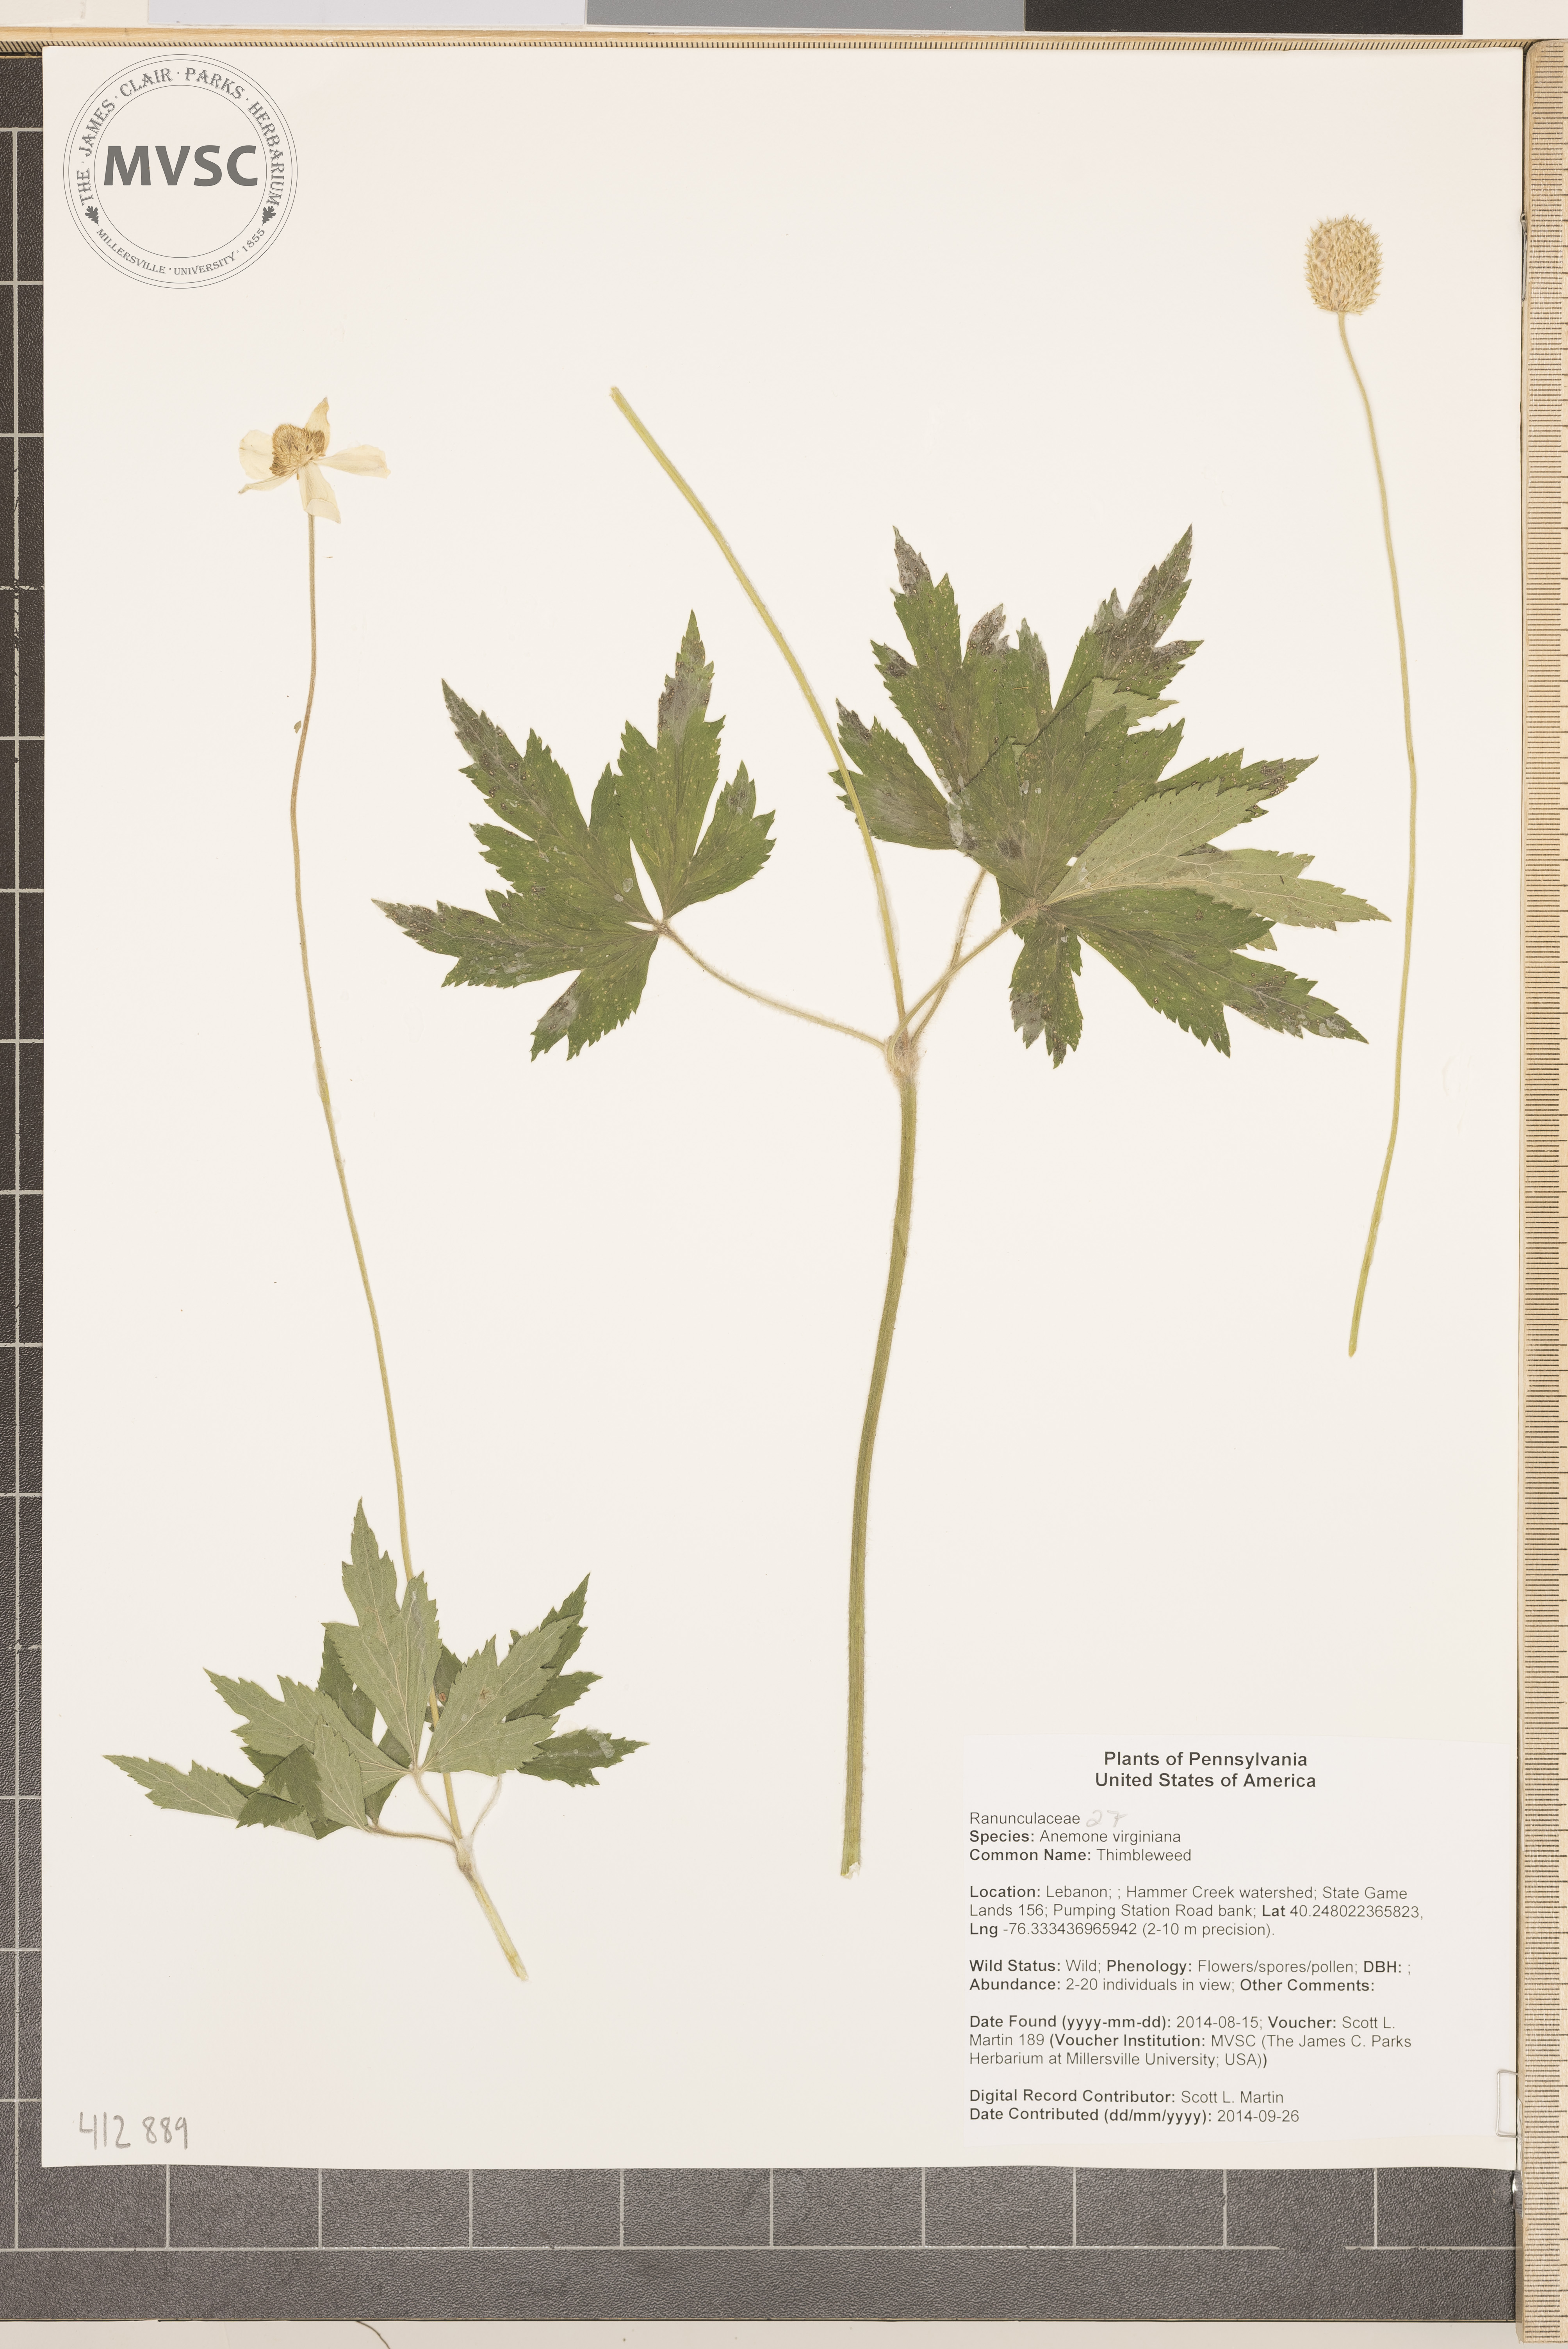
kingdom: Plantae
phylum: Tracheophyta
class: Magnoliopsida
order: Ranunculales
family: Ranunculaceae
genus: Anemone
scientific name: Anemone virginiana
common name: Thimbleweed
